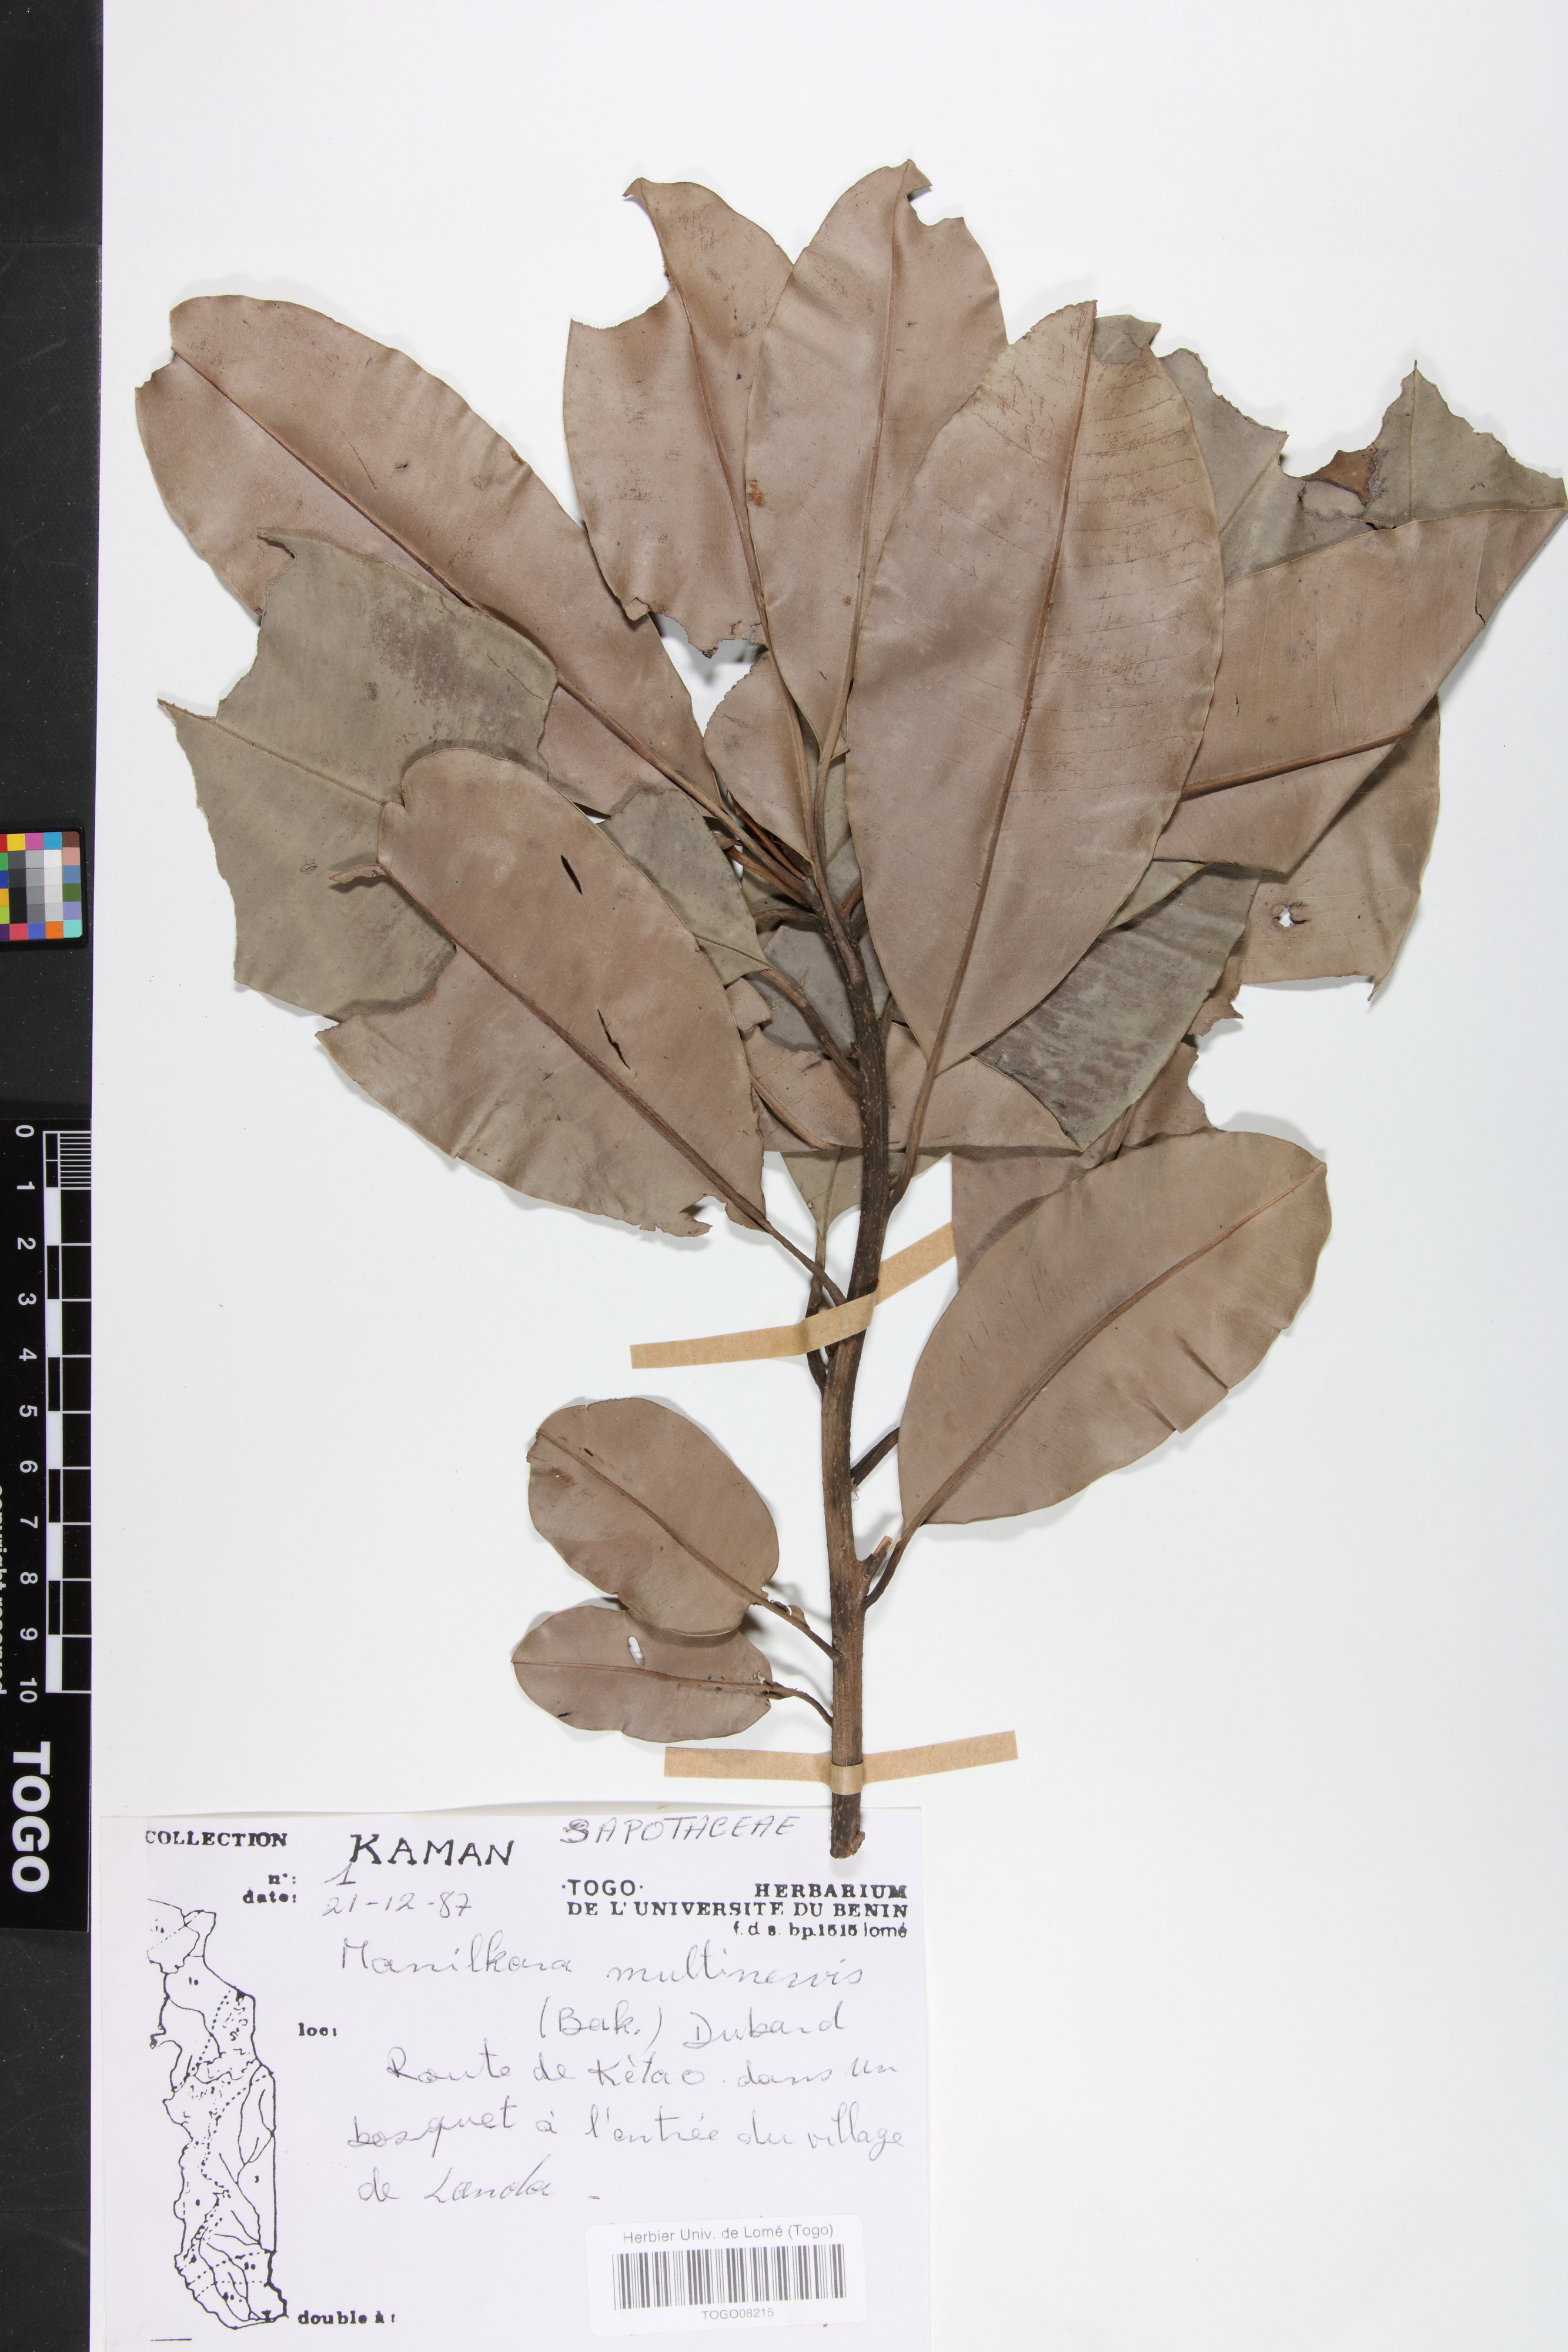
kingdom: Plantae
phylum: Tracheophyta
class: Magnoliopsida
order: Ericales
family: Sapotaceae
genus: Manilkara
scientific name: Manilkara obovata
